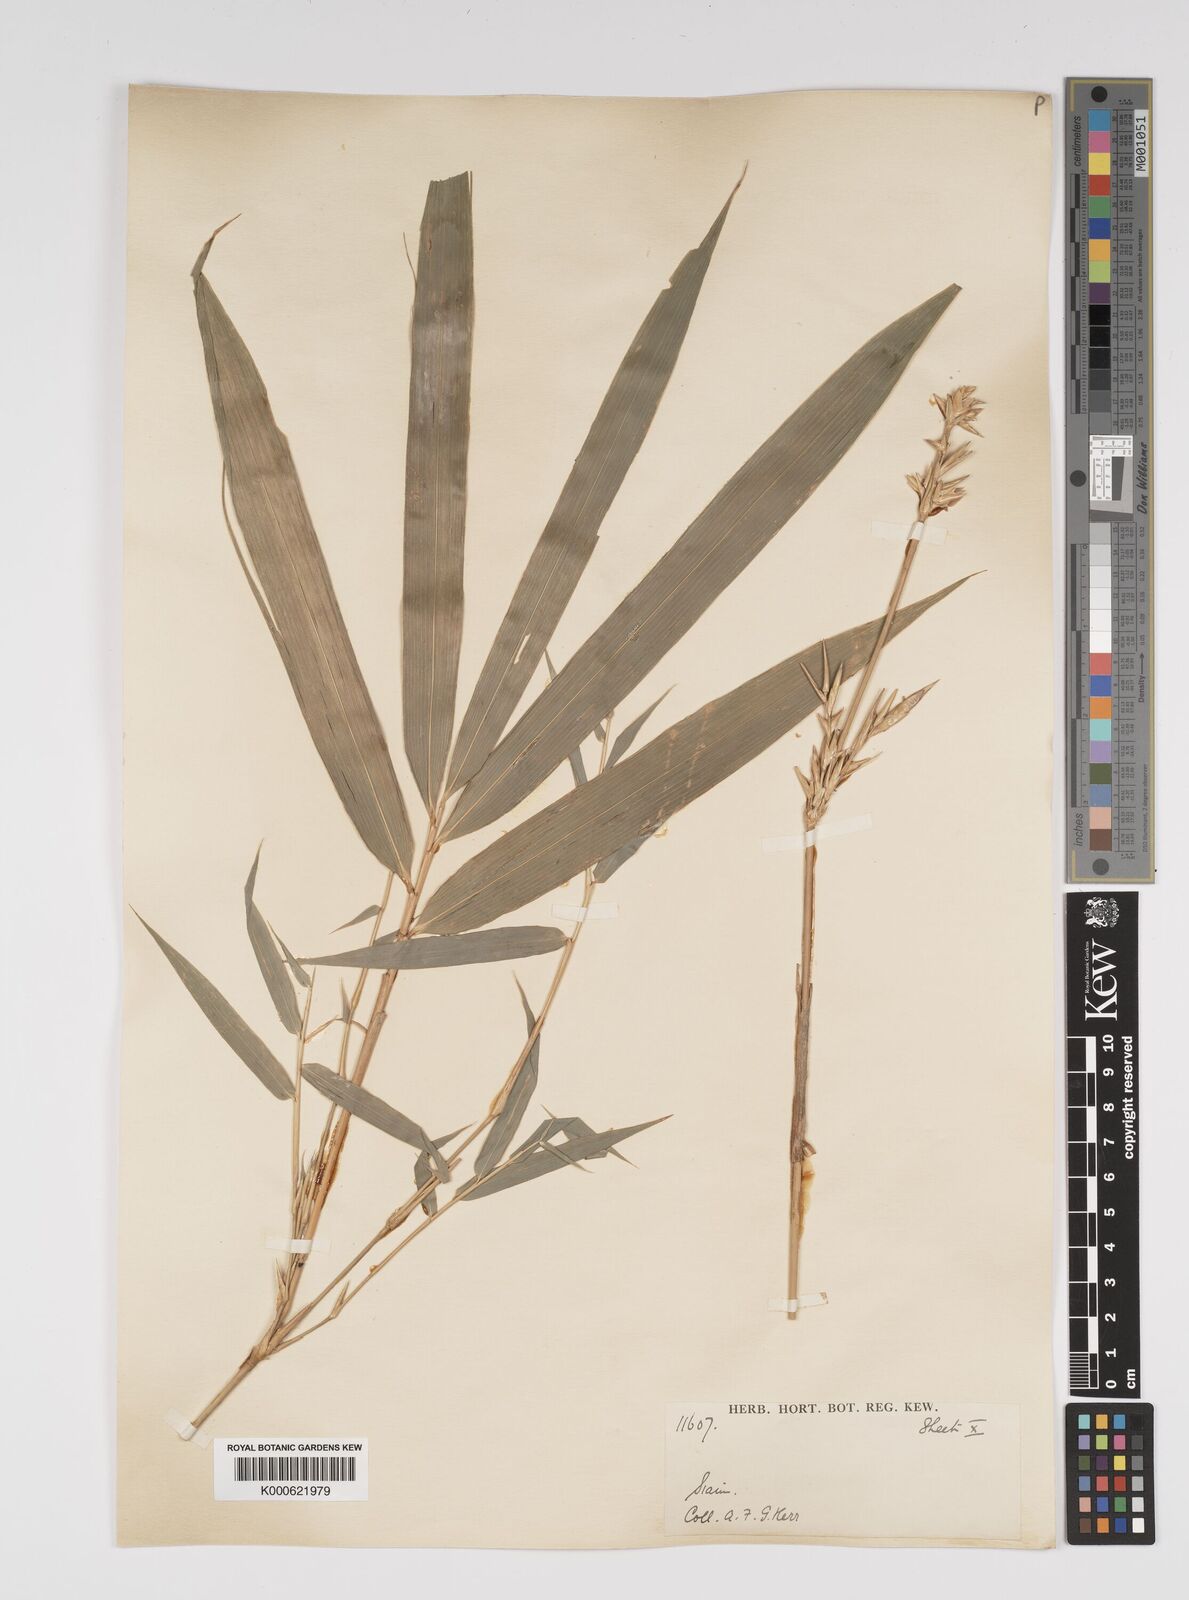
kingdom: Plantae
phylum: Tracheophyta
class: Liliopsida
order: Poales
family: Poaceae
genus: Bambusa
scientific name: Bambusa
